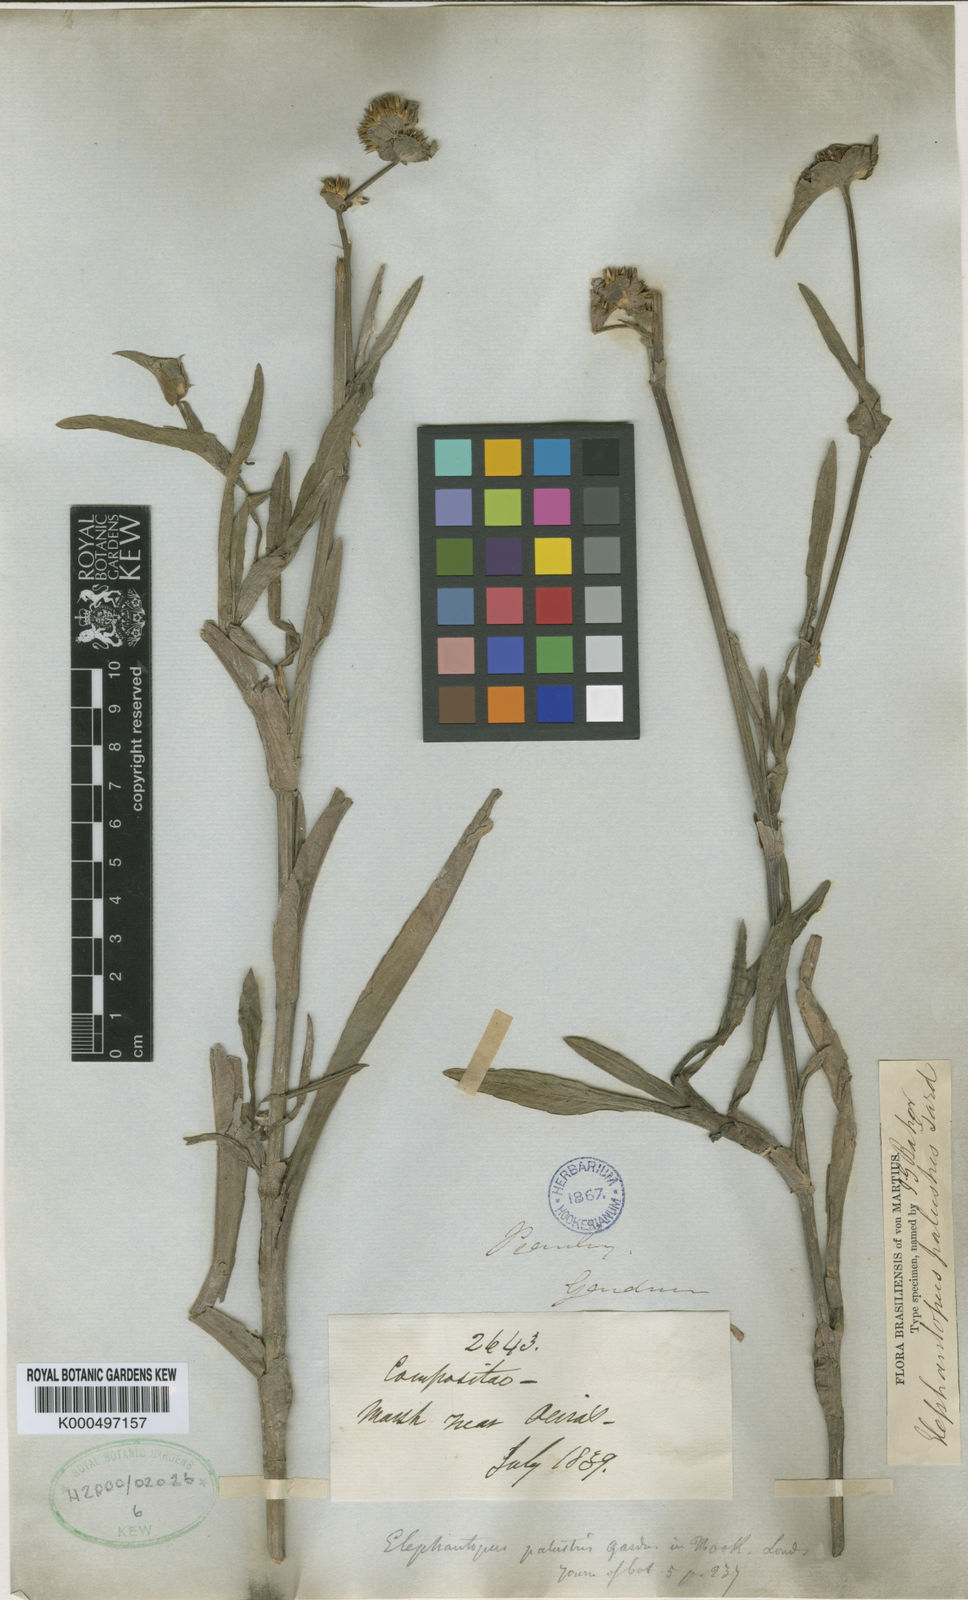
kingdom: Plantae
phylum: Tracheophyta
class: Magnoliopsida
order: Asterales
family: Asteraceae
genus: Elephantopus
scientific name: Elephantopus palustris
